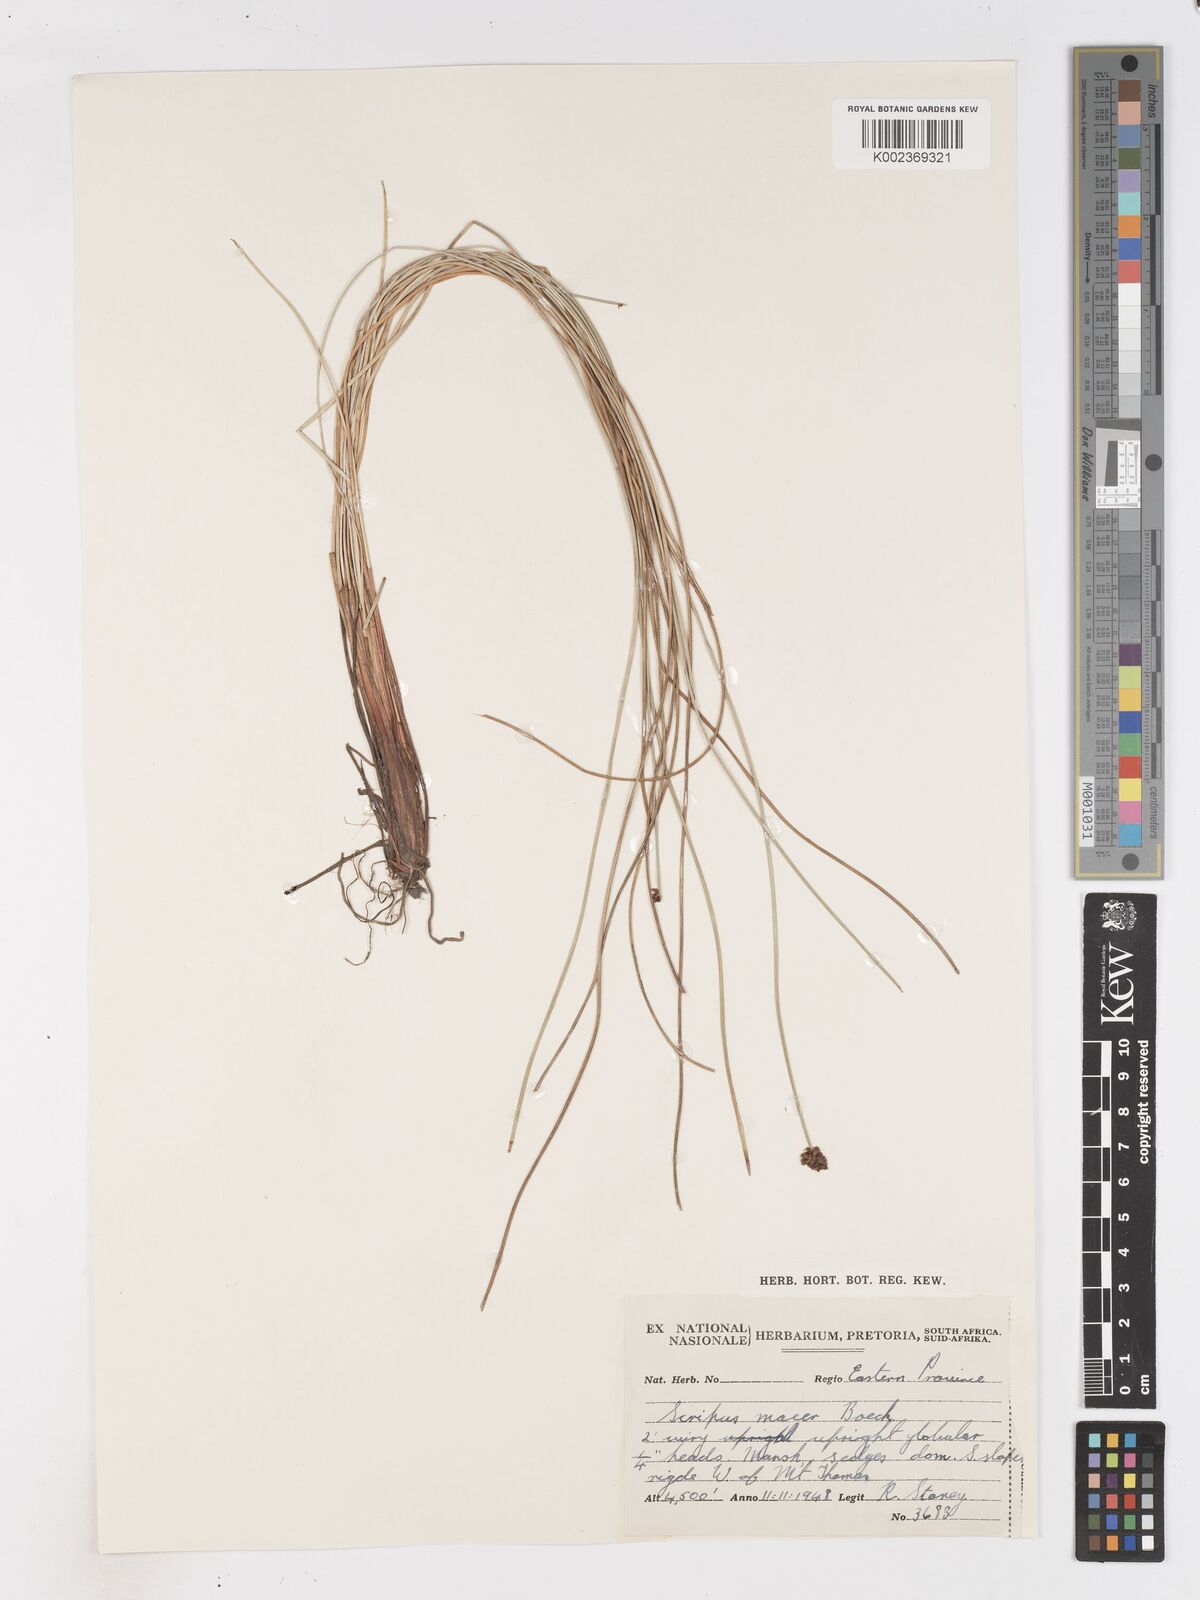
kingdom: Plantae
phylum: Tracheophyta
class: Liliopsida
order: Poales
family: Cyperaceae
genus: Isolepis
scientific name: Isolepis costata
